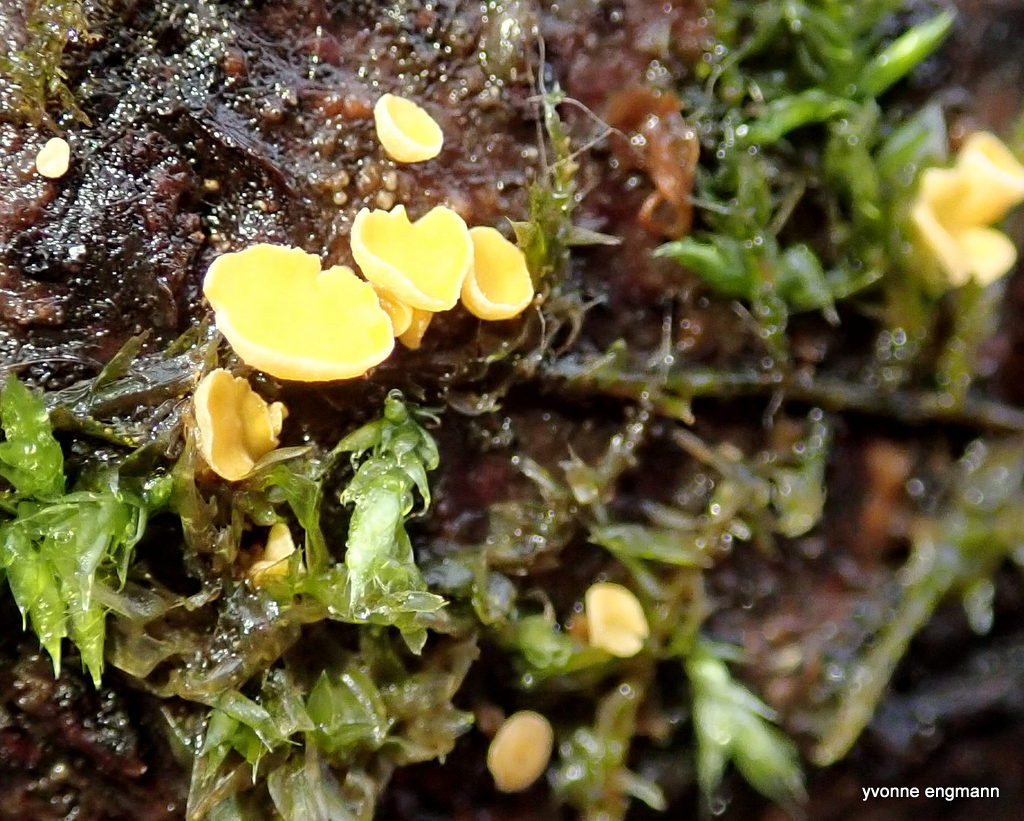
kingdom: Fungi
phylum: Ascomycota
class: Leotiomycetes
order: Helotiales
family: Pezizellaceae
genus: Calycina
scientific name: Calycina citrina
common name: almindelig gulskive
